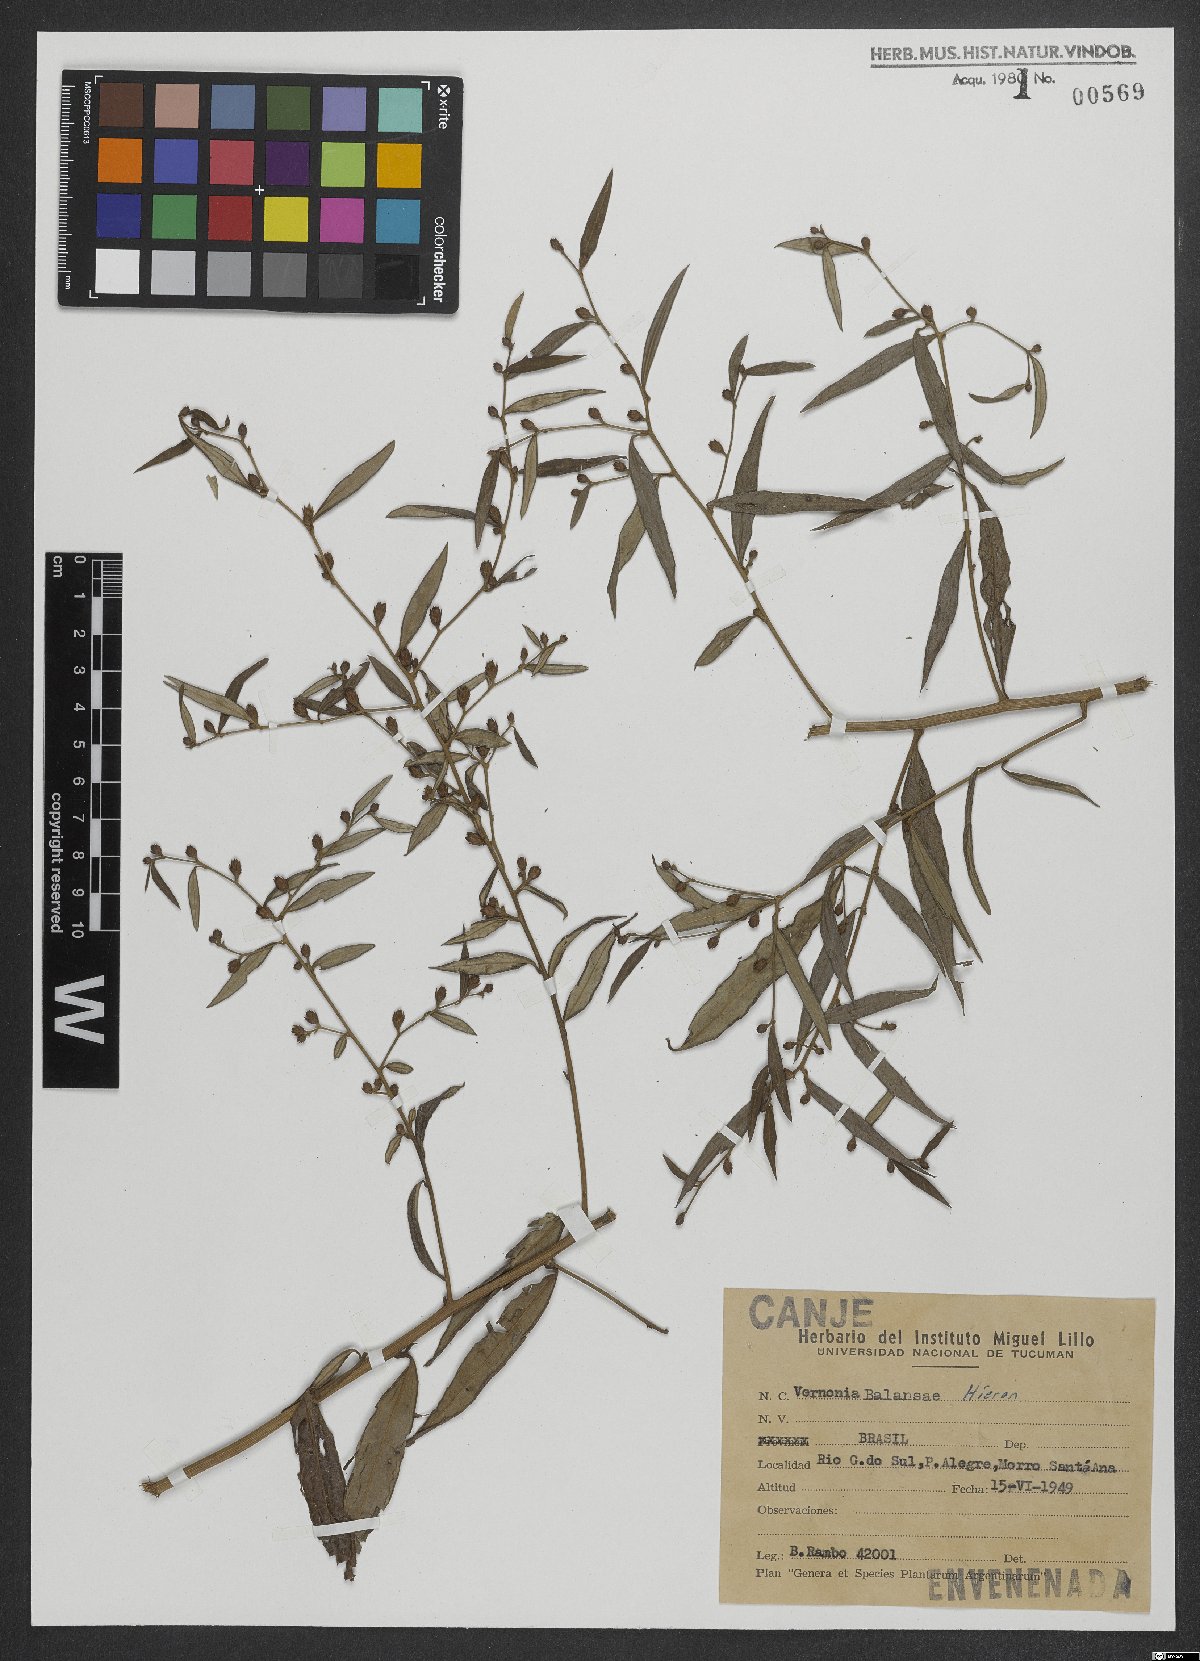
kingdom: Plantae
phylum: Tracheophyta
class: Magnoliopsida
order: Asterales
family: Asteraceae
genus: Lepidaploa
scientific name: Lepidaploa balansae
